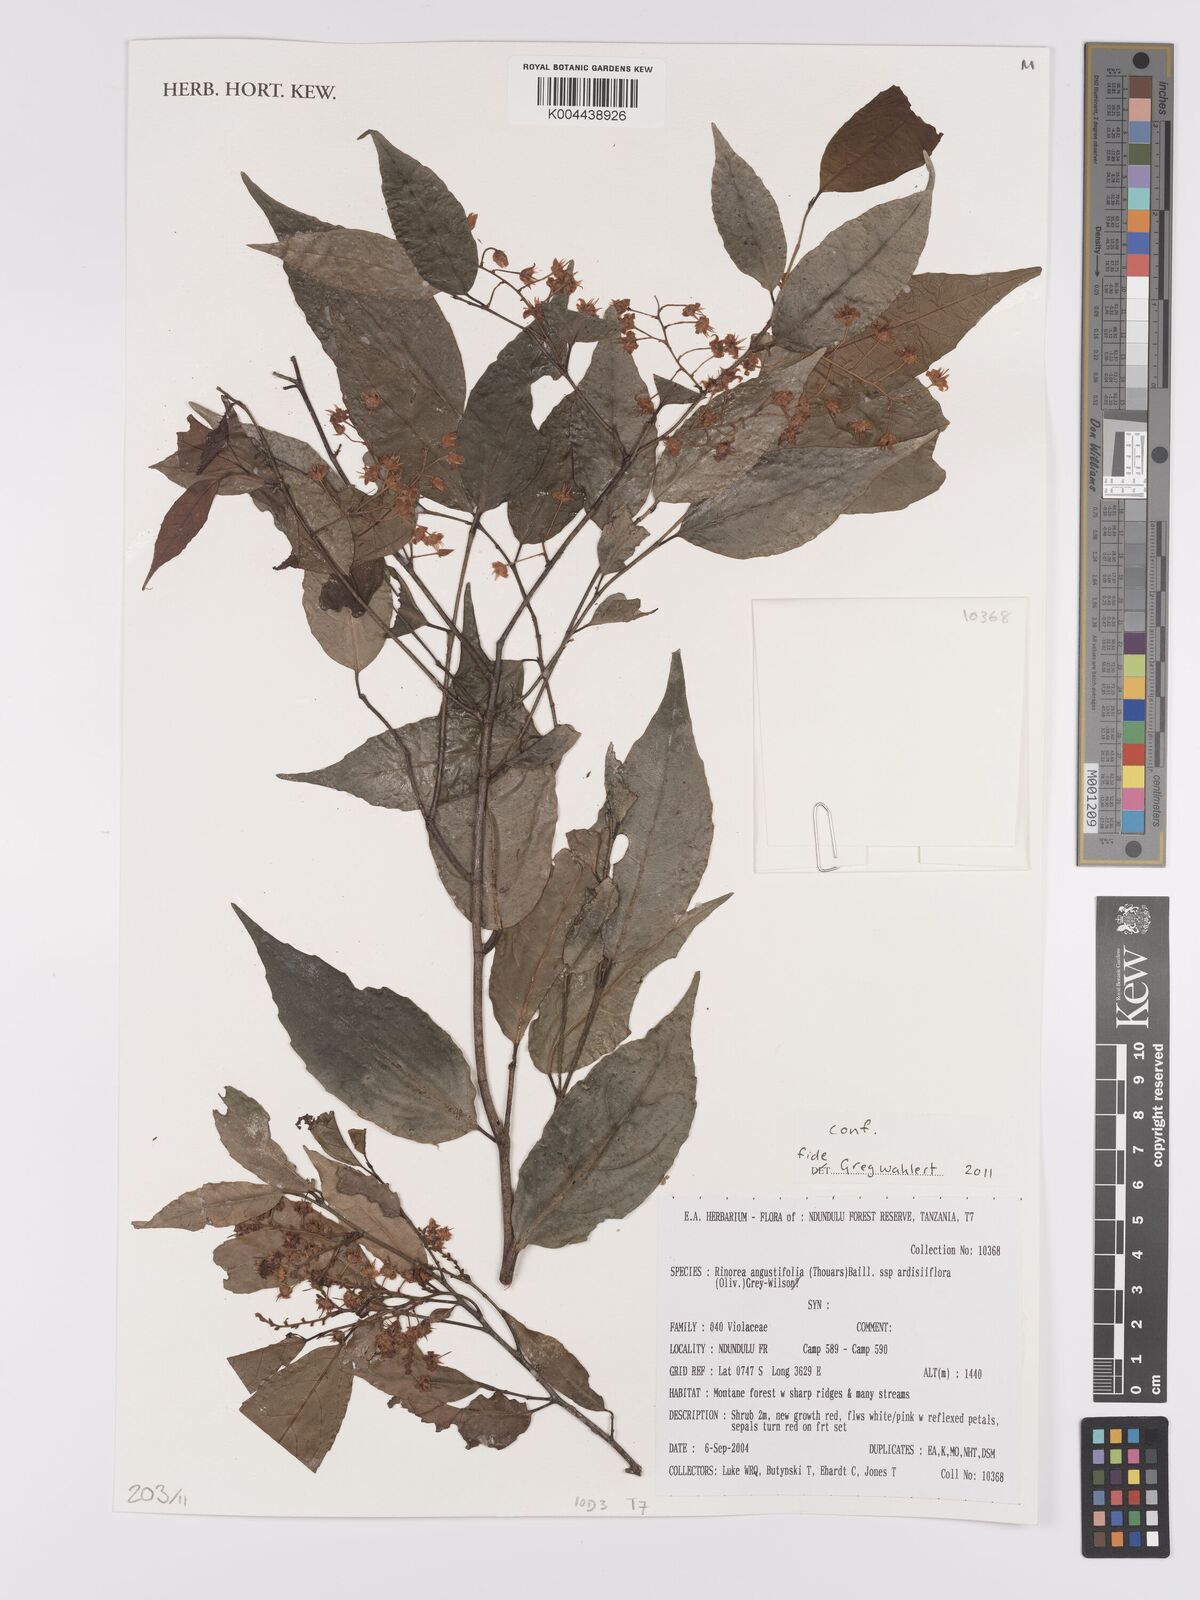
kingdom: Plantae
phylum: Tracheophyta
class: Magnoliopsida
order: Malpighiales
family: Violaceae
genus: Rinorea
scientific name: Rinorea angustifolia
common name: White violet-bush
